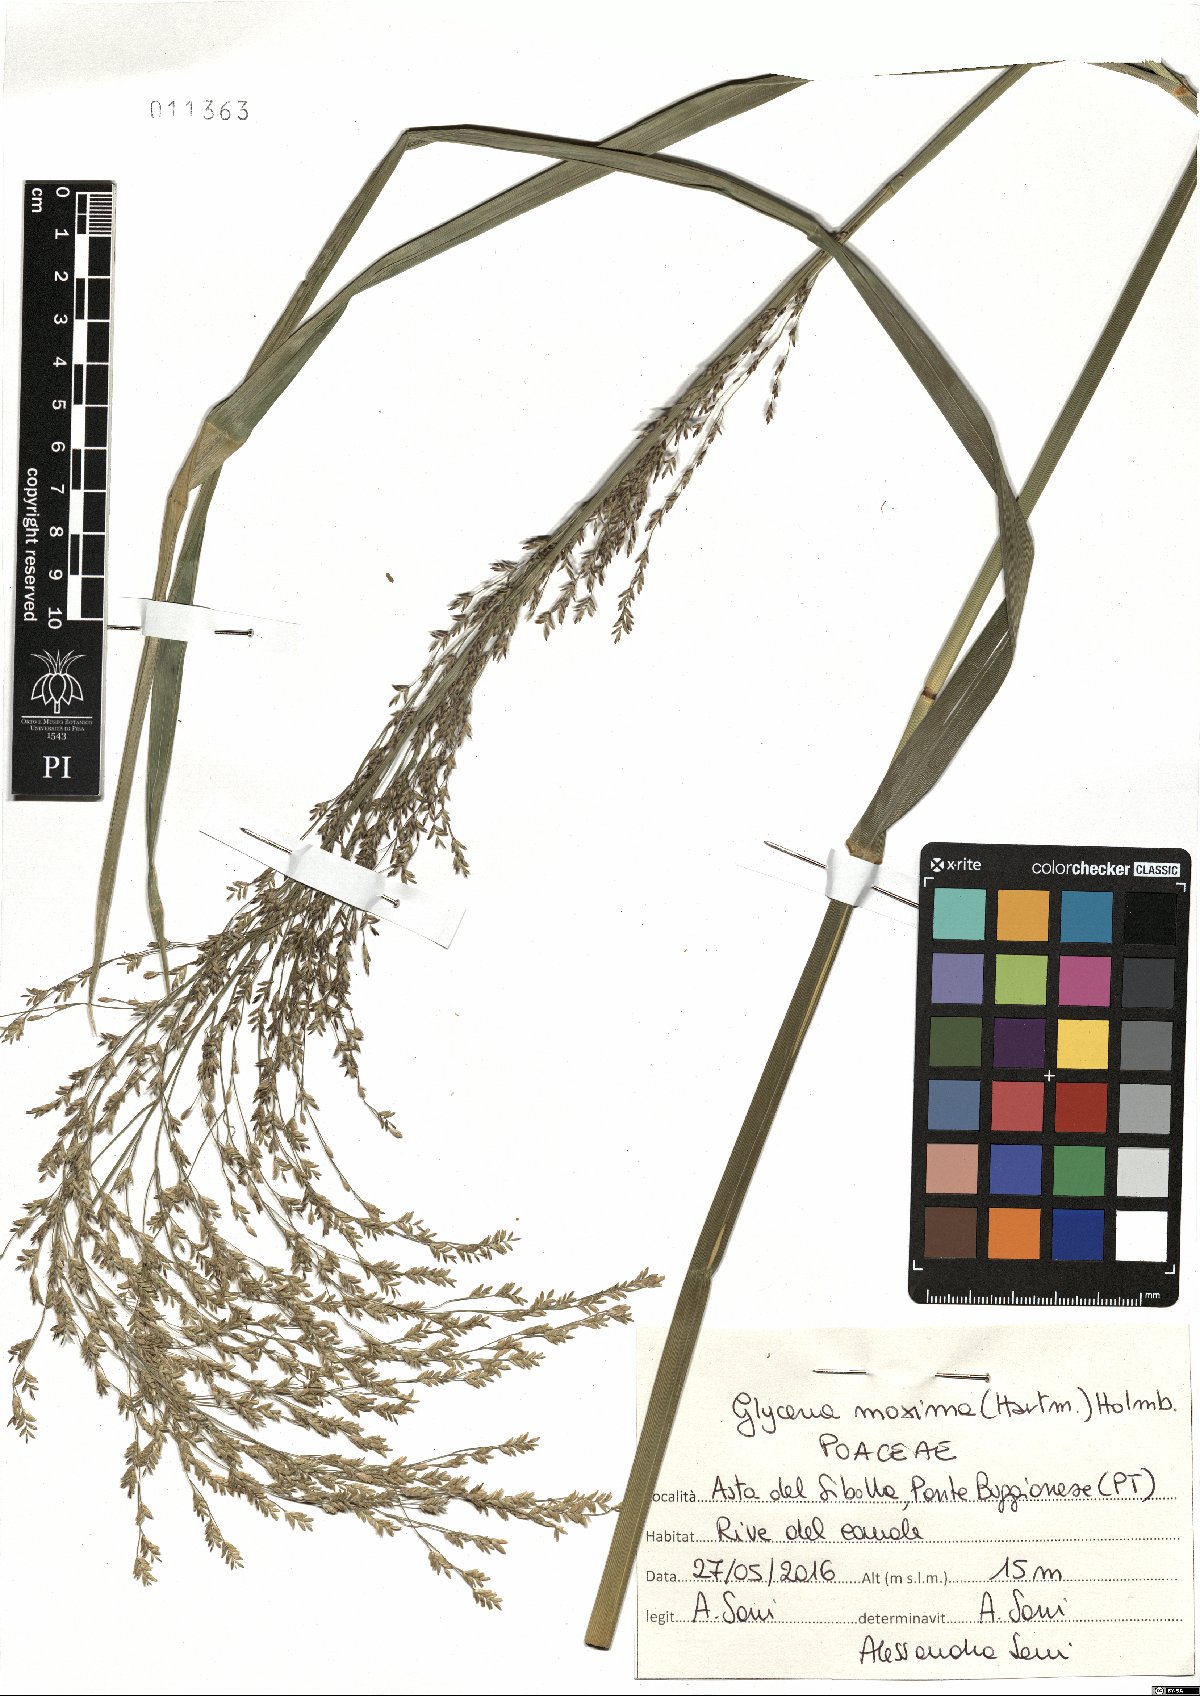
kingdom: Plantae
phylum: Tracheophyta
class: Liliopsida
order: Poales
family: Poaceae
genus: Glyceria
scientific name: Glyceria maxima
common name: Reed mannagrass
